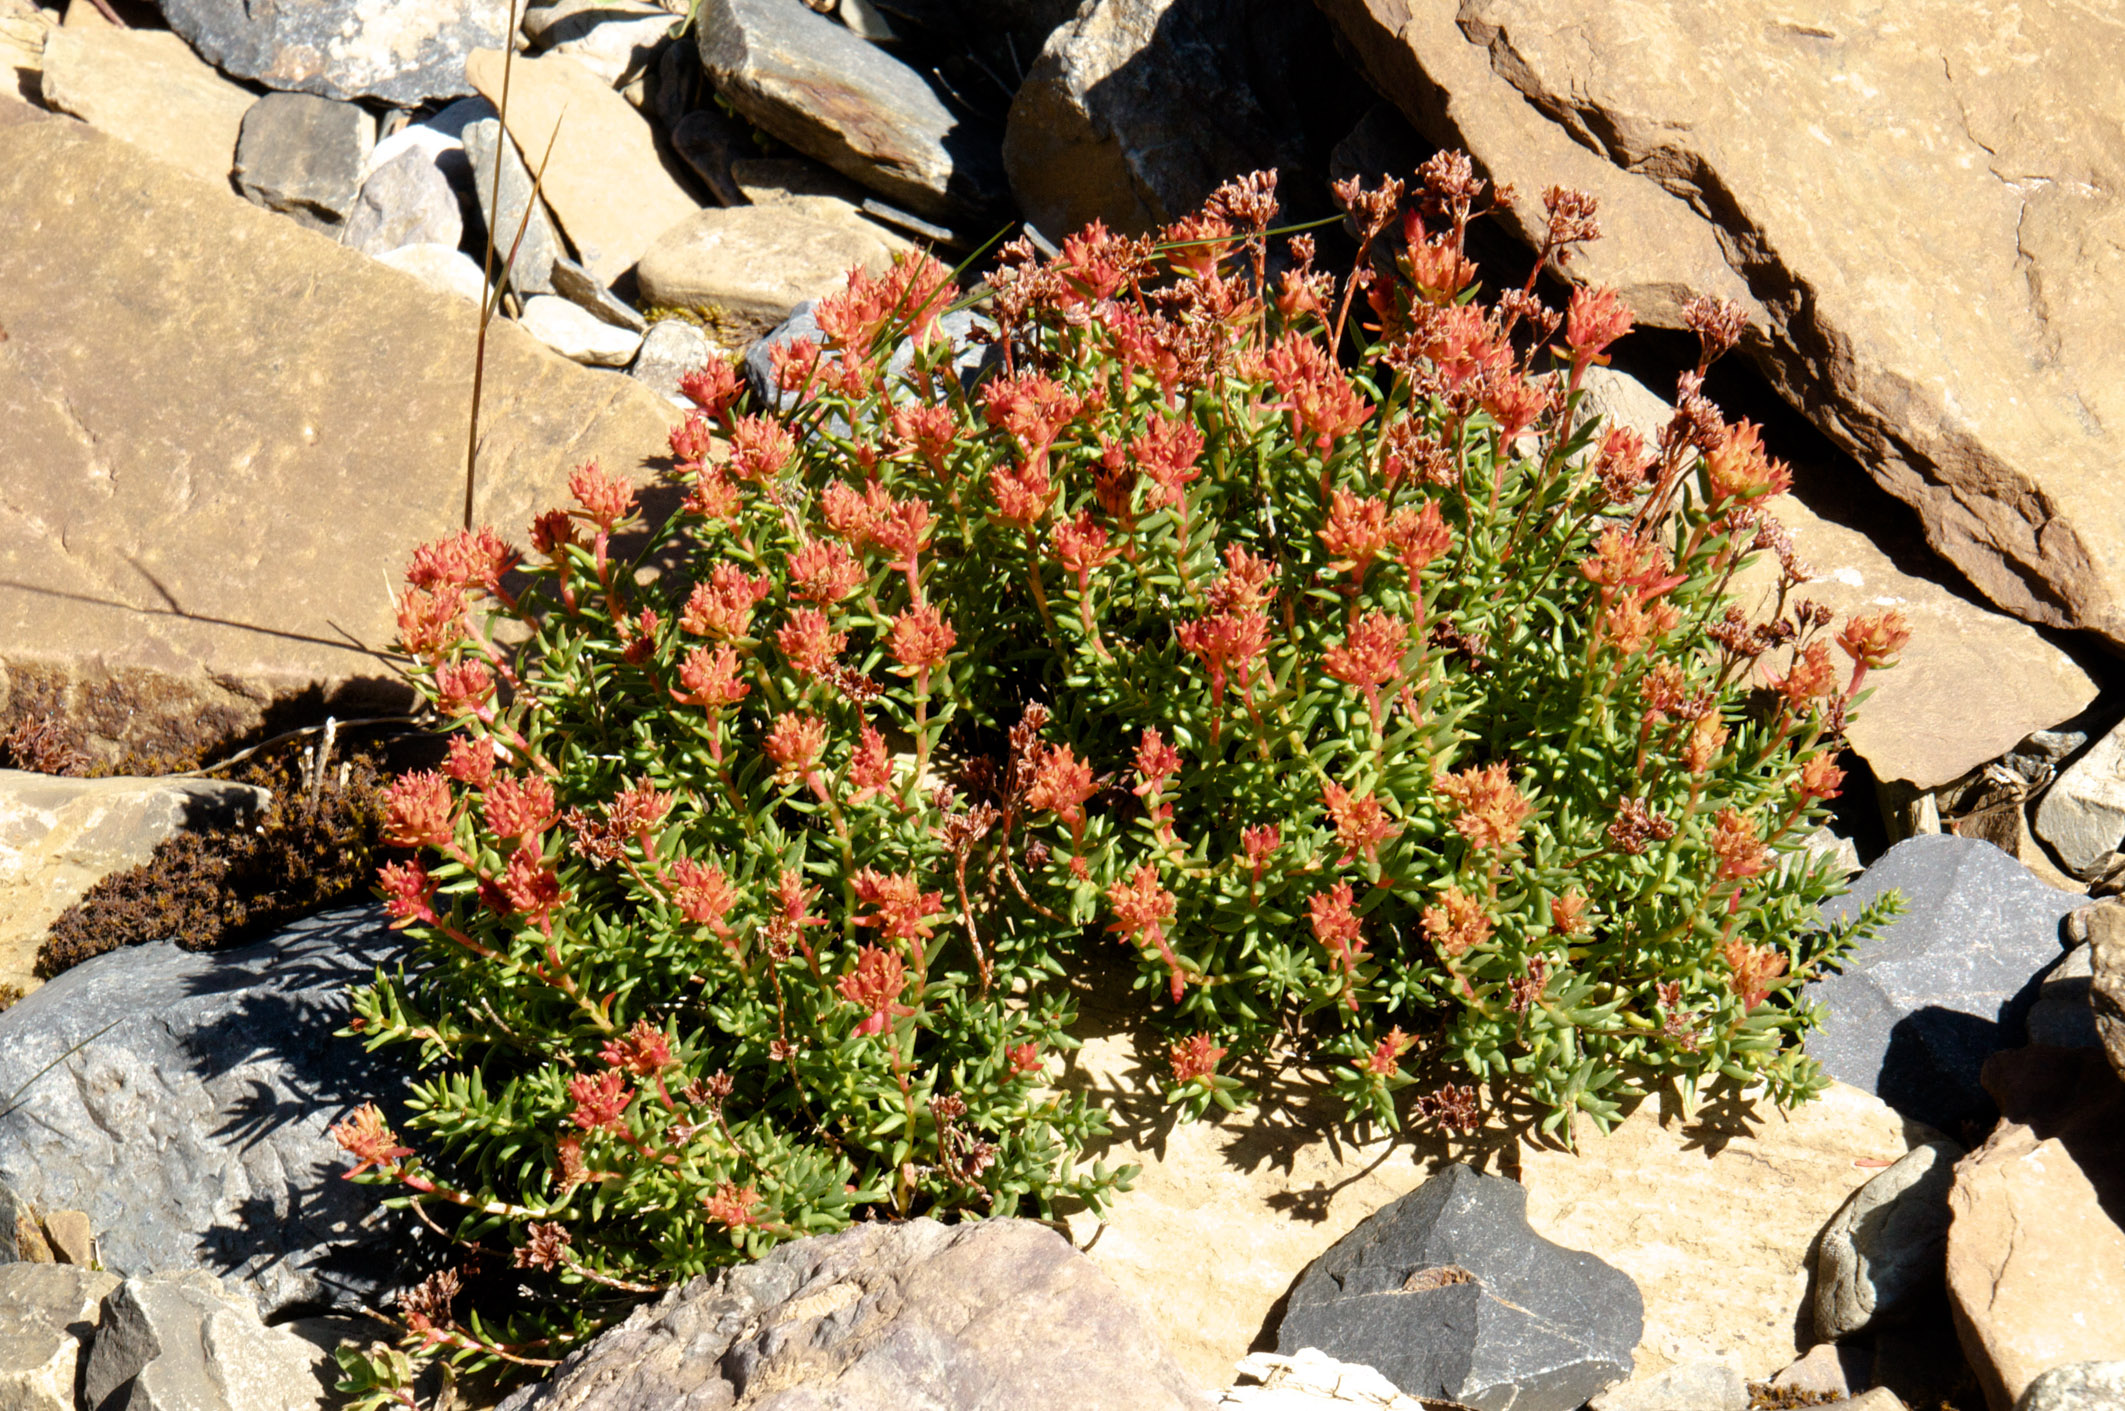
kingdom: Plantae
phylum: Tracheophyta
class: Magnoliopsida
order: Saxifragales
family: Crassulaceae
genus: Rhodiola
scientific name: Rhodiola quadrifida
